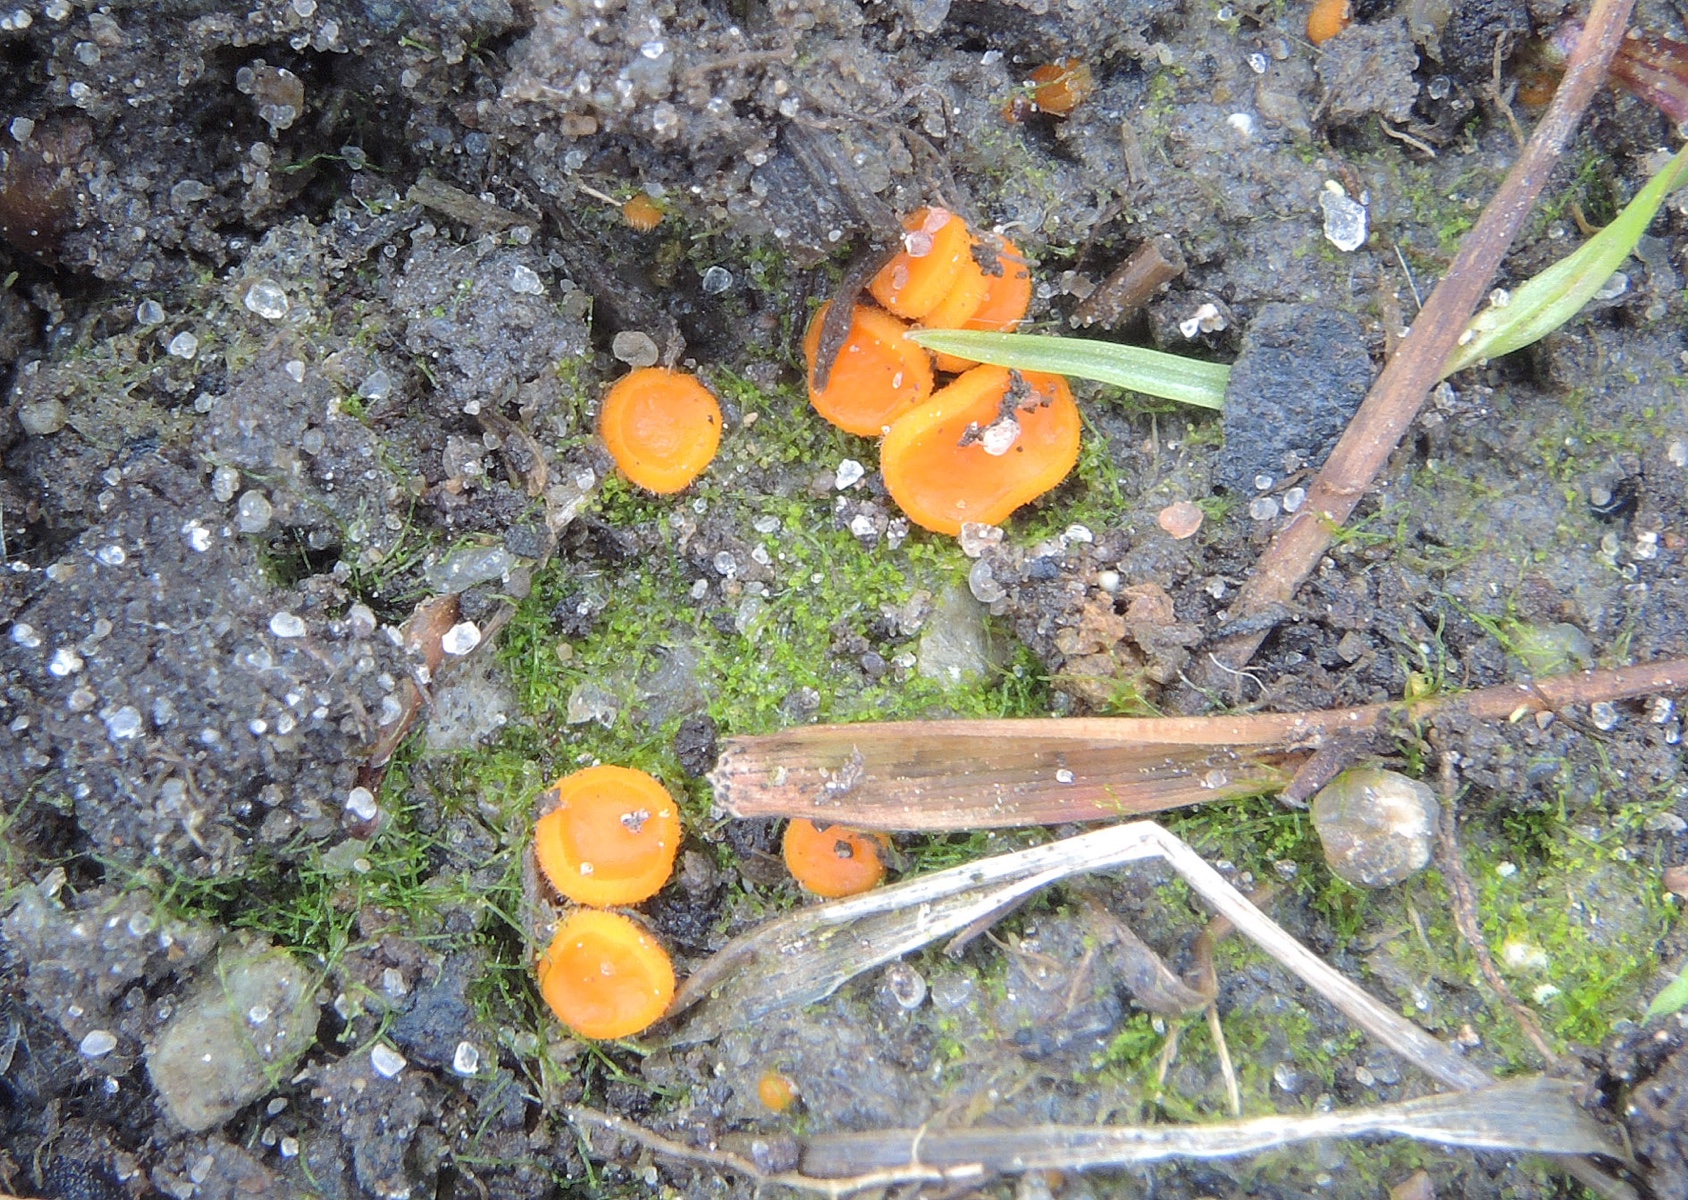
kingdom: Fungi
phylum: Ascomycota
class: Pezizomycetes
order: Pezizales
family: Pyronemataceae
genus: Cheilymenia
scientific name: Cheilymenia crucipila
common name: orange hårbæger
